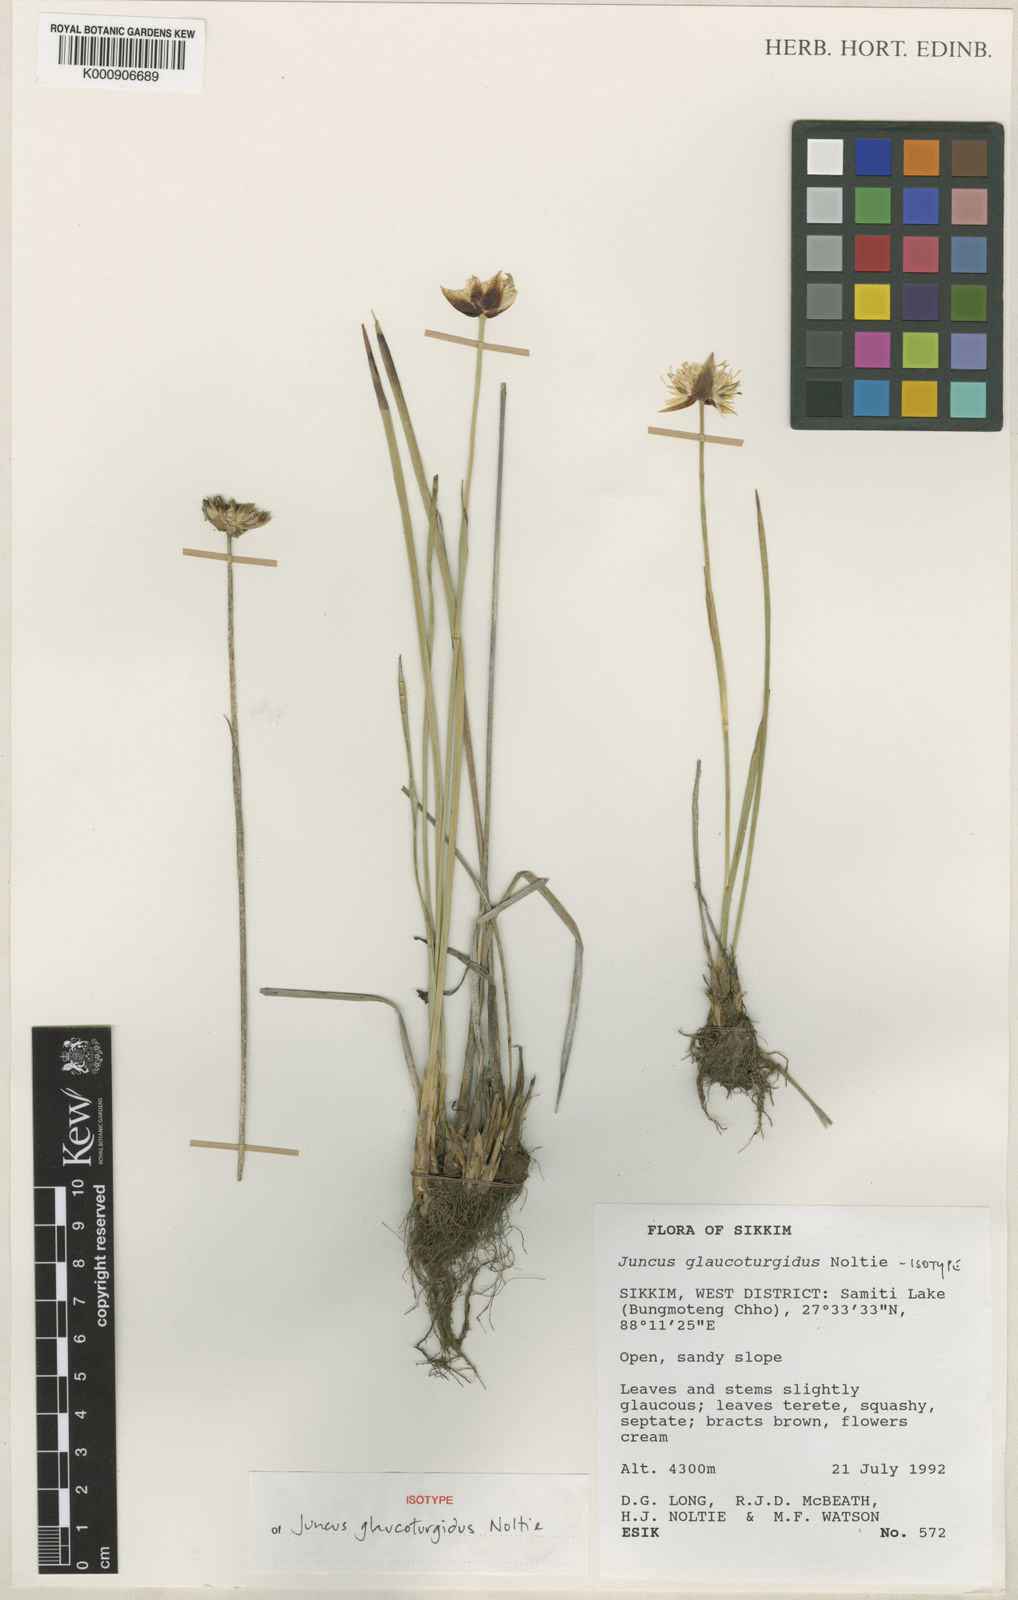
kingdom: Plantae
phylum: Tracheophyta
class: Liliopsida
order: Poales
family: Juncaceae
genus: Juncus
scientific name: Juncus glaucoturgidus
